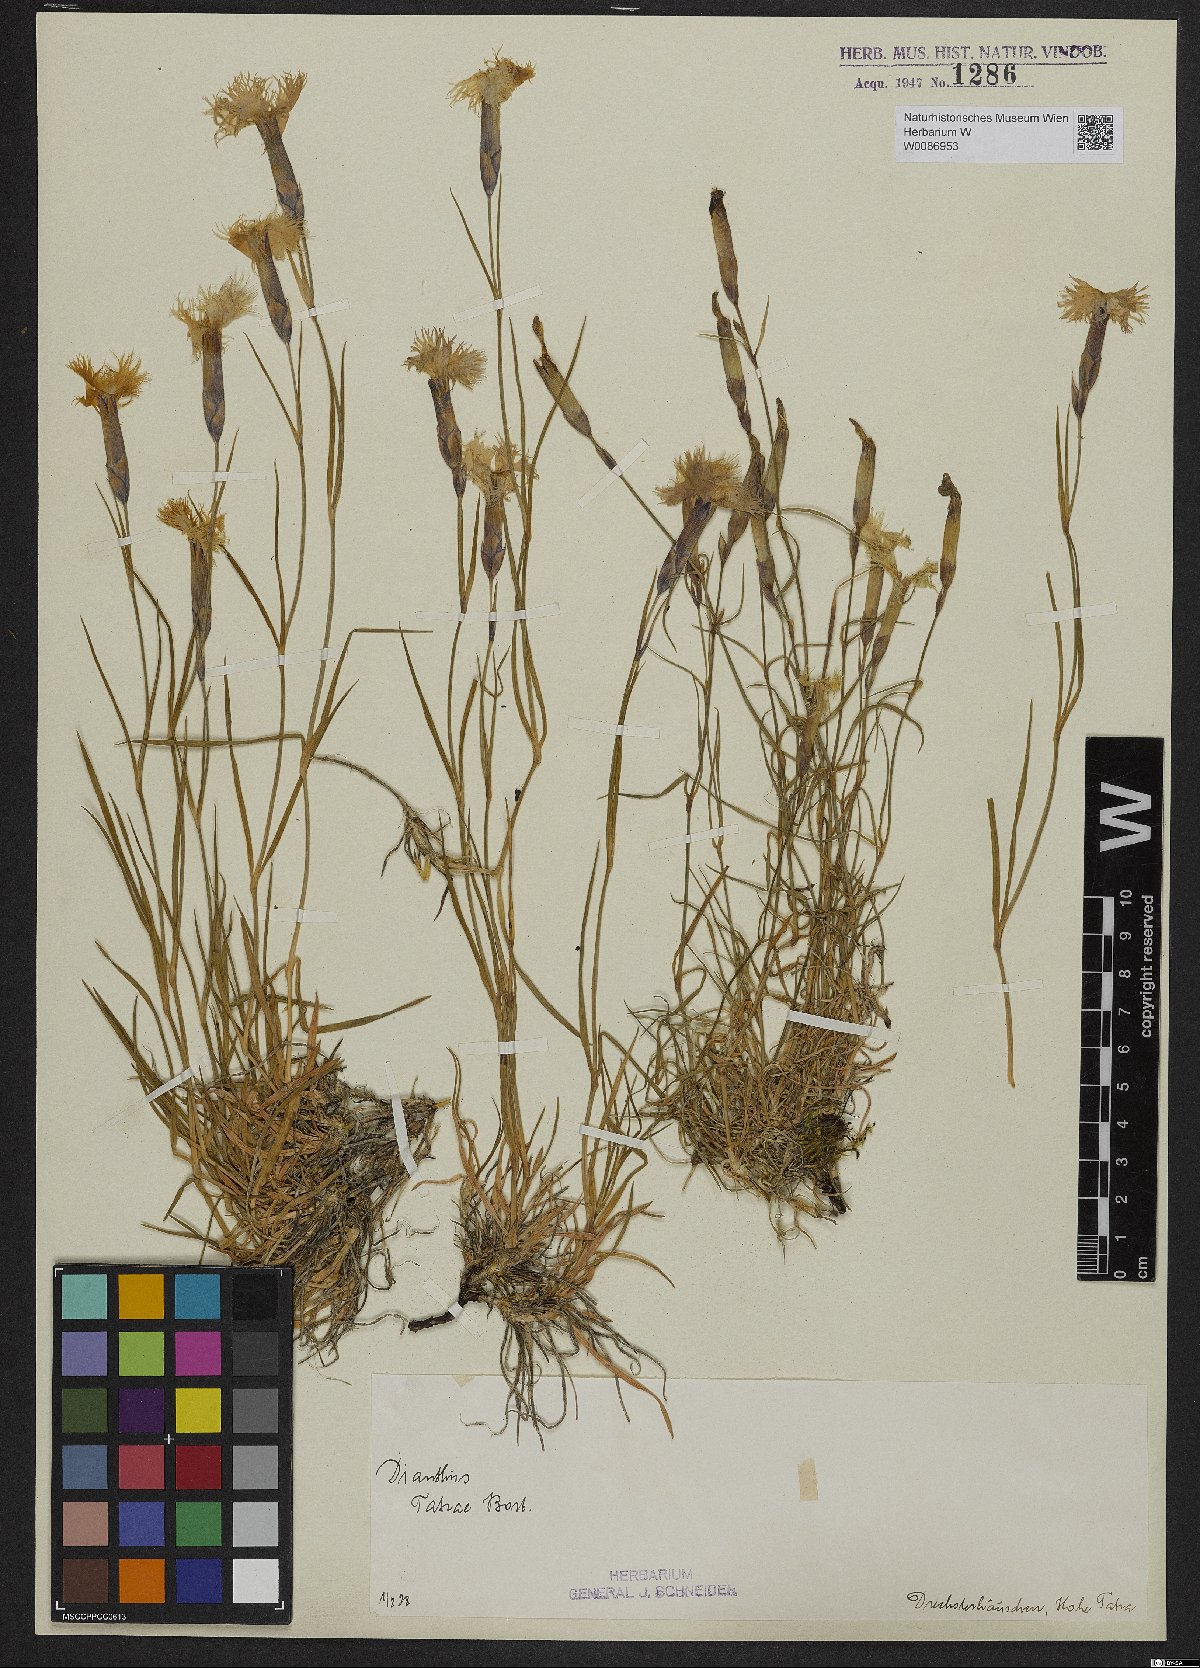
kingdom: Plantae
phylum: Tracheophyta
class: Magnoliopsida
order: Caryophyllales
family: Caryophyllaceae
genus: Dianthus
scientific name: Dianthus tatrae
